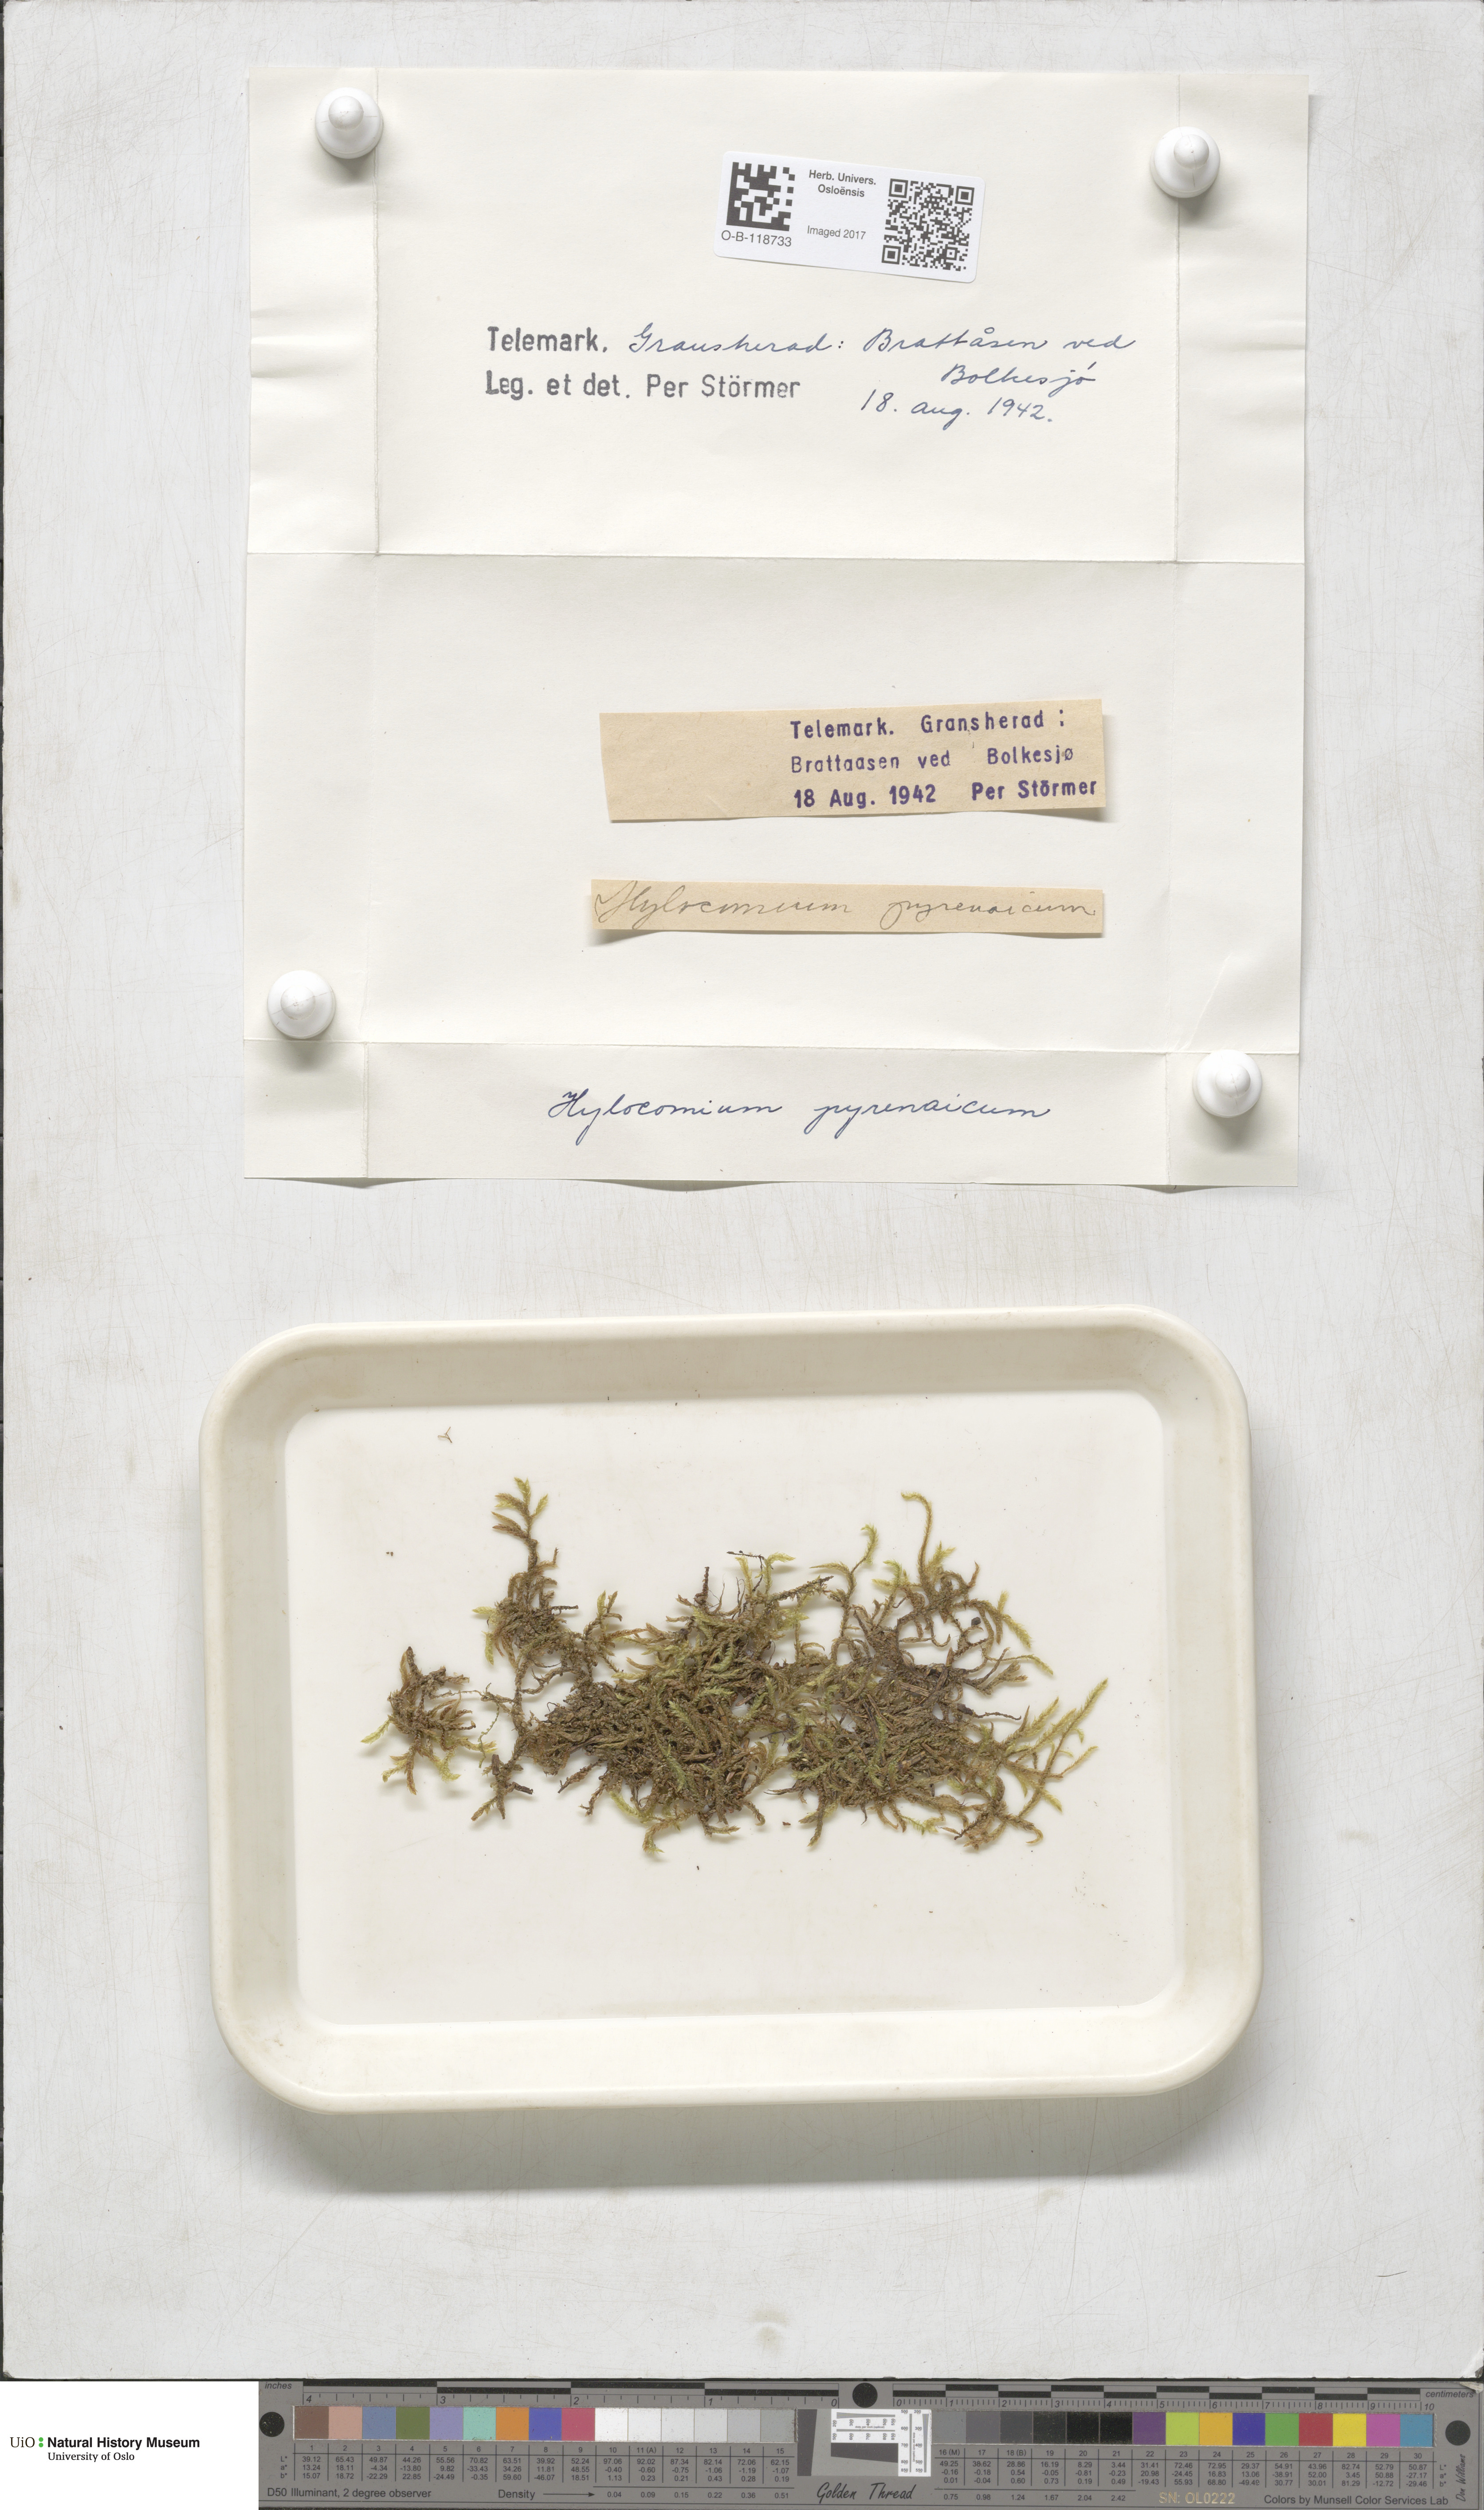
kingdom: Plantae
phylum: Bryophyta
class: Bryopsida
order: Hypnales
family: Hylocomiaceae
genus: Hylocomiastrum
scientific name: Hylocomiastrum pyrenaicum
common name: Oake s wood moss
